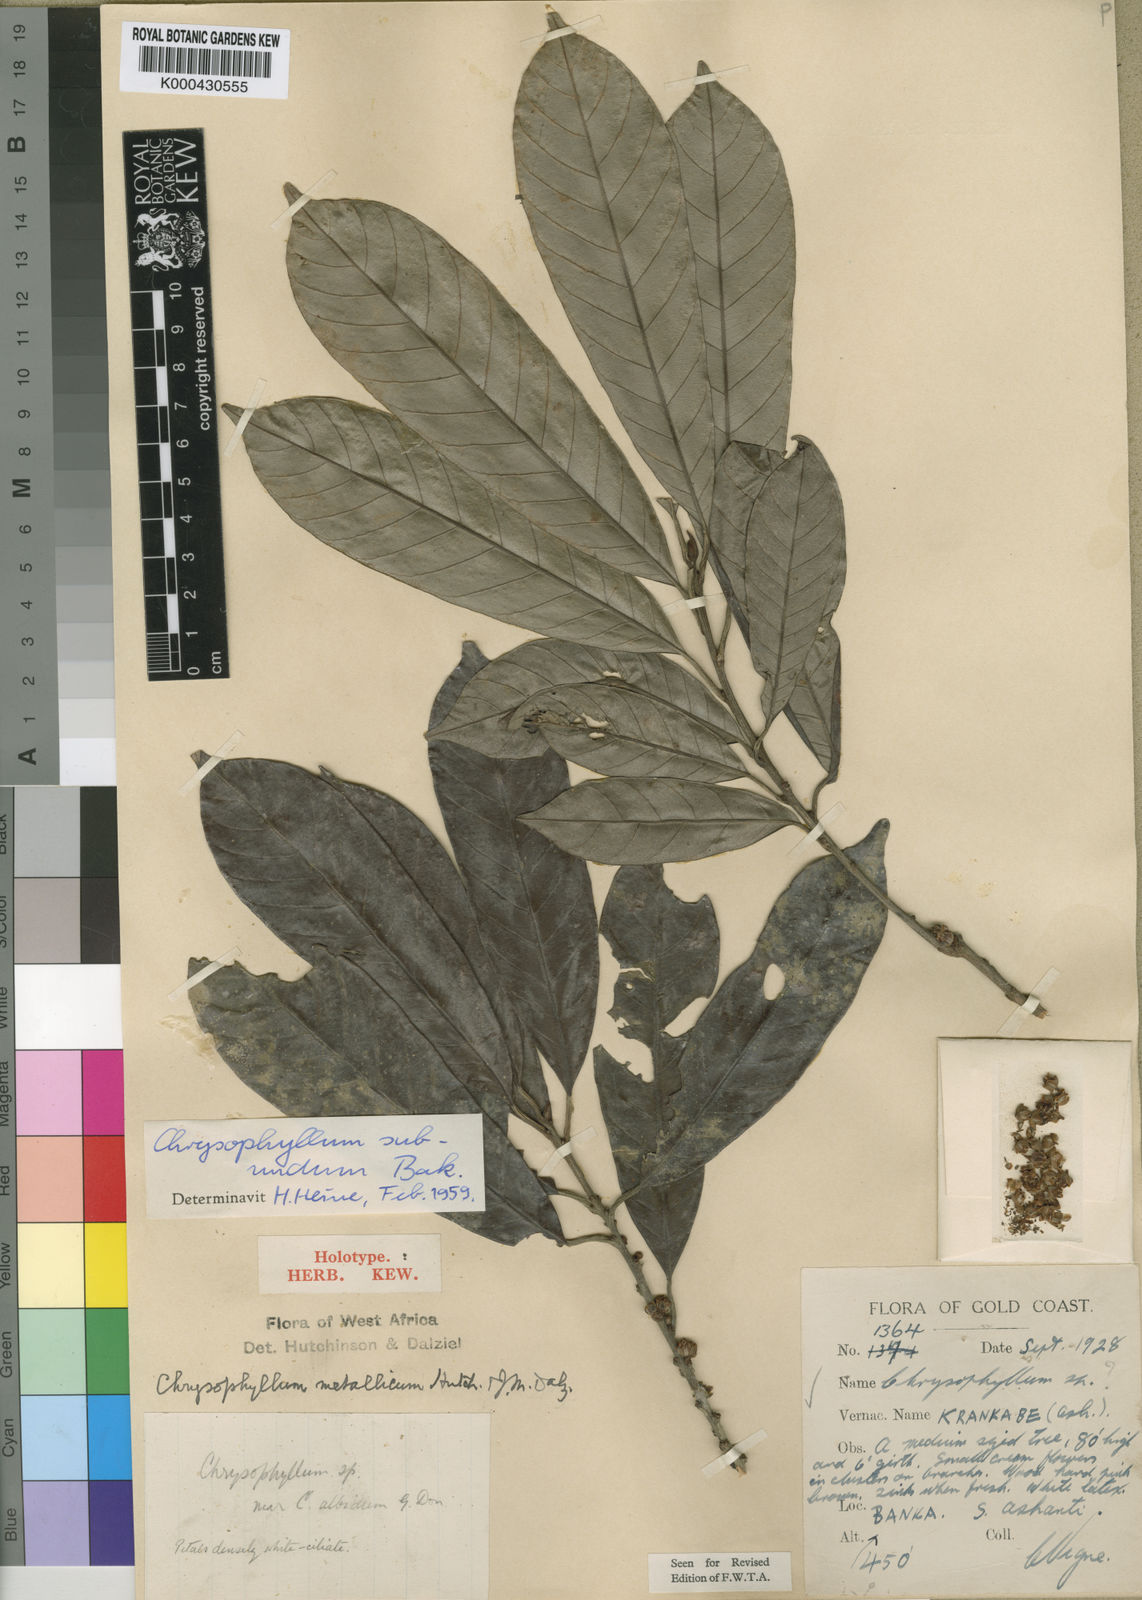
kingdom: Plantae
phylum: Tracheophyta
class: Magnoliopsida
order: Ericales
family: Sapotaceae
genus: Gambeya
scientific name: Gambeya subnuda
